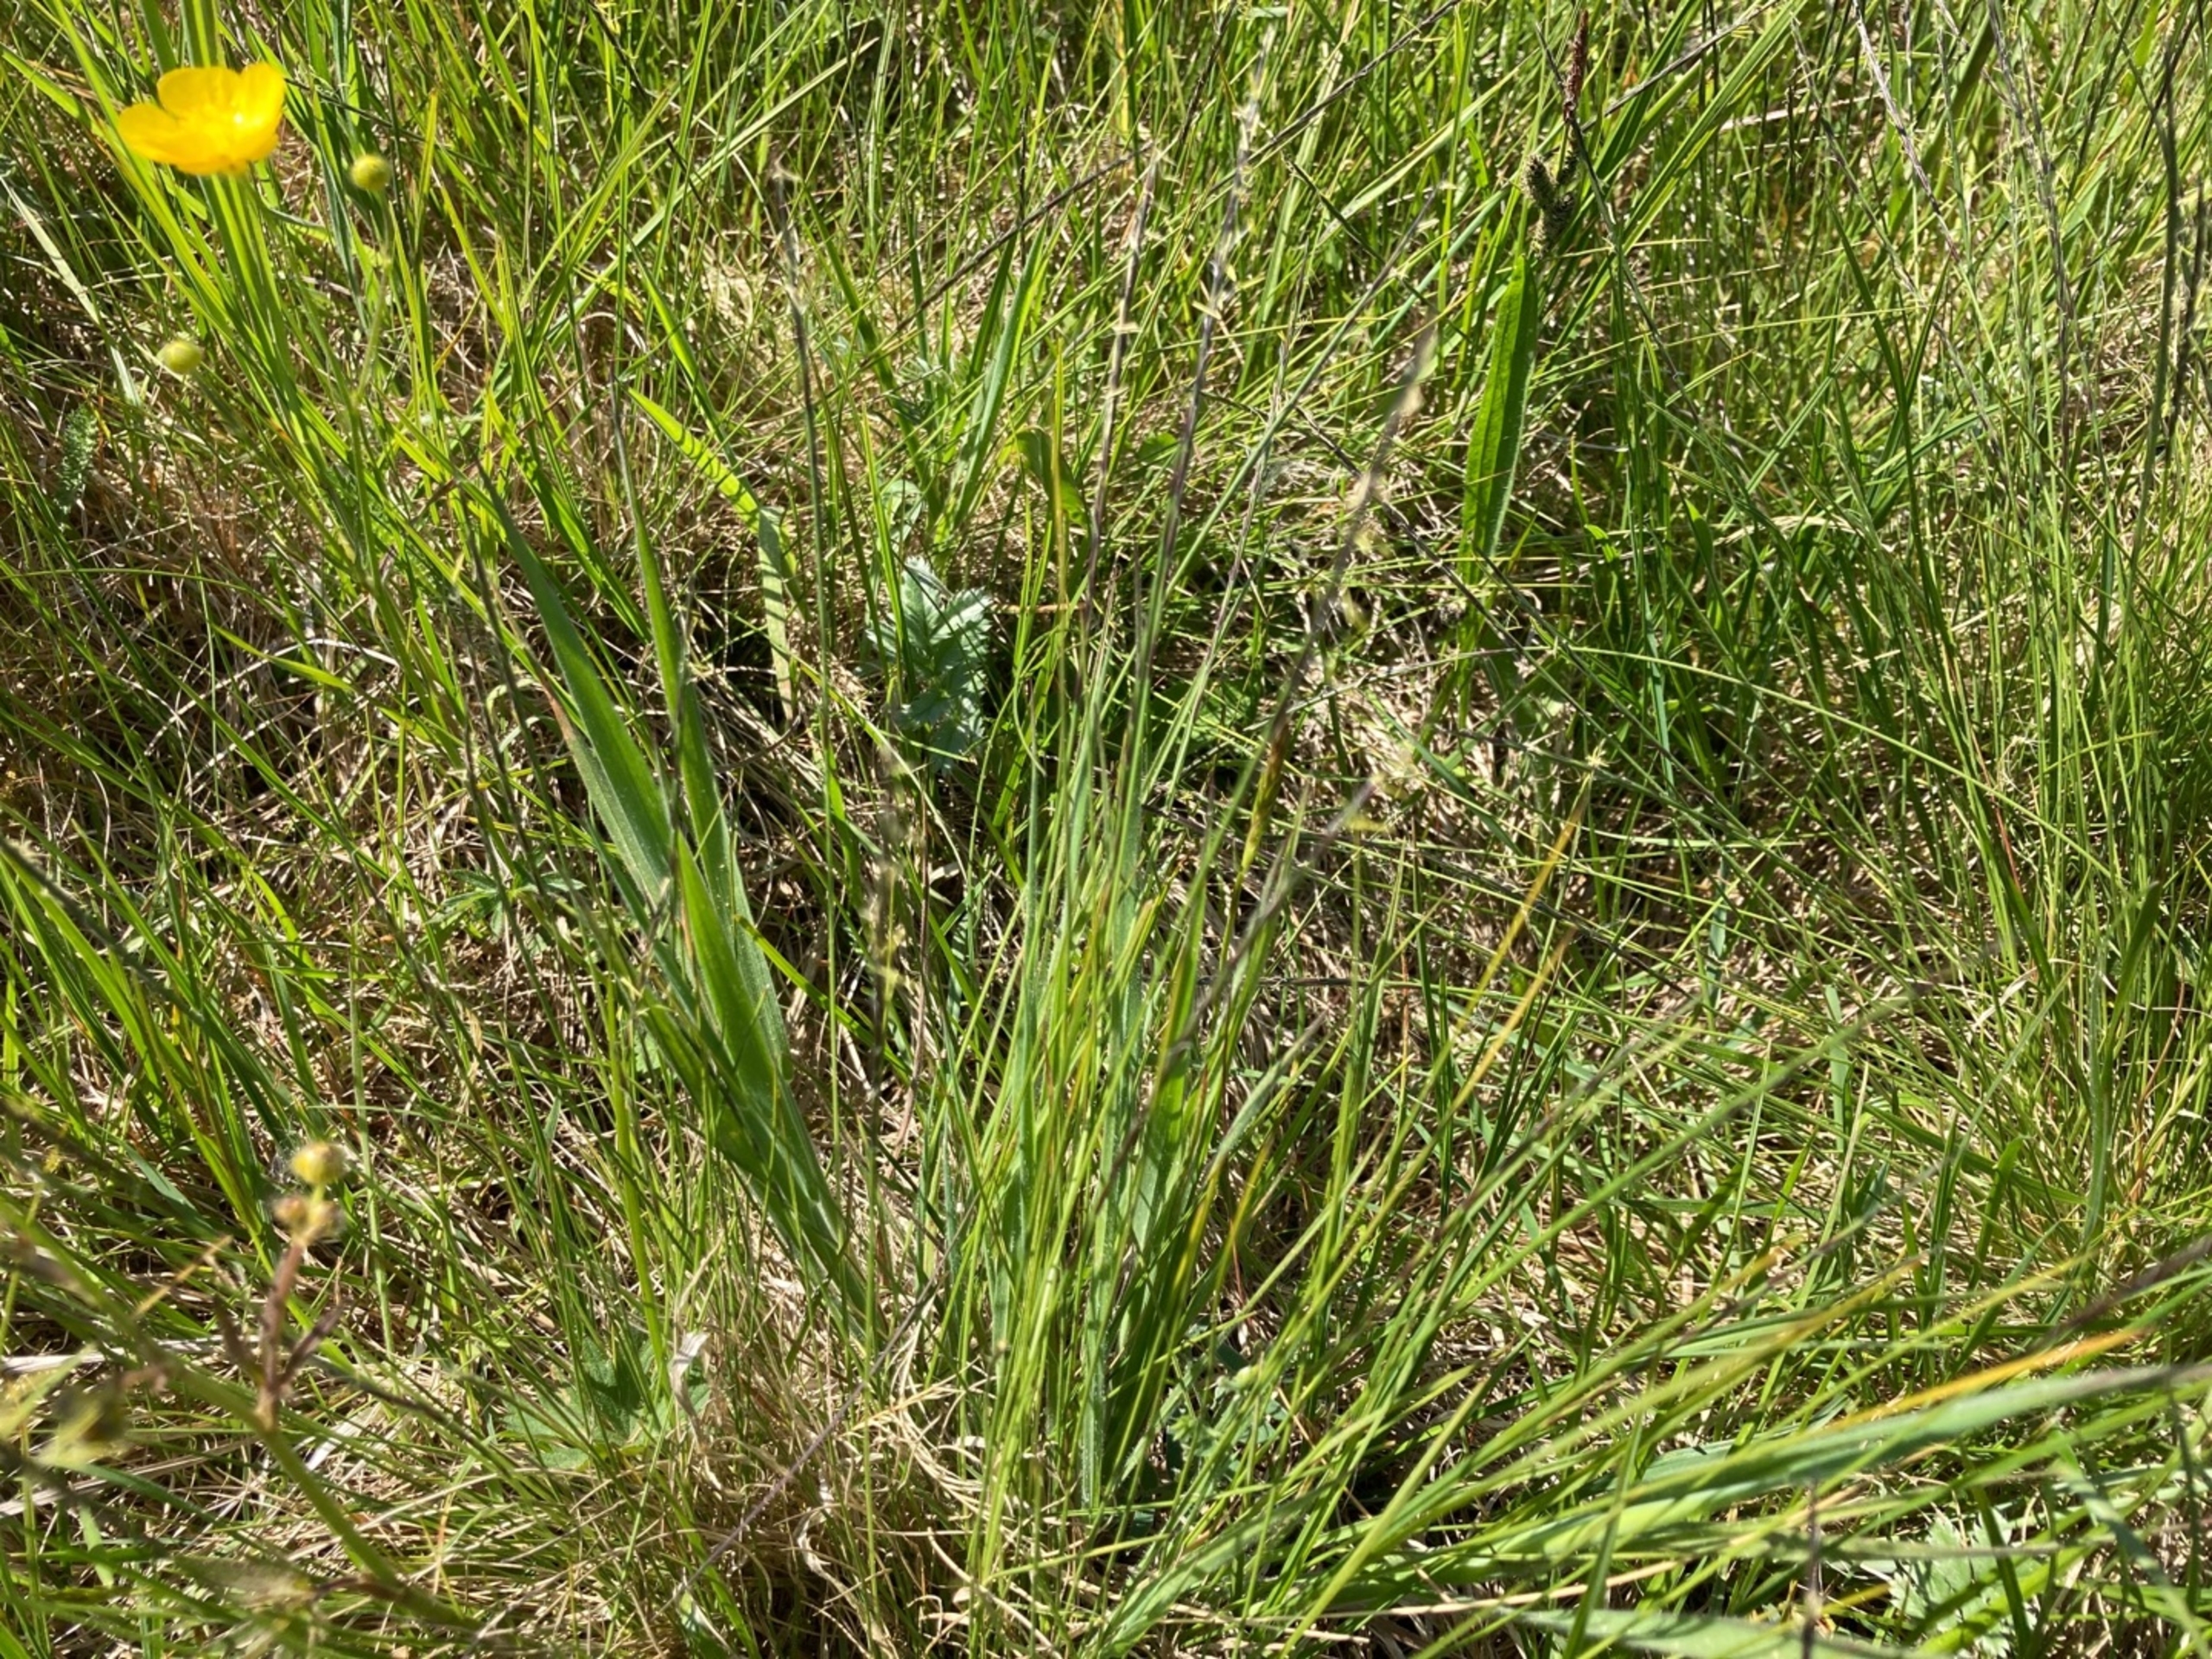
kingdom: Plantae
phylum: Tracheophyta
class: Liliopsida
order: Poales
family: Poaceae
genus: Nardus
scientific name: Nardus stricta
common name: Katteskæg
